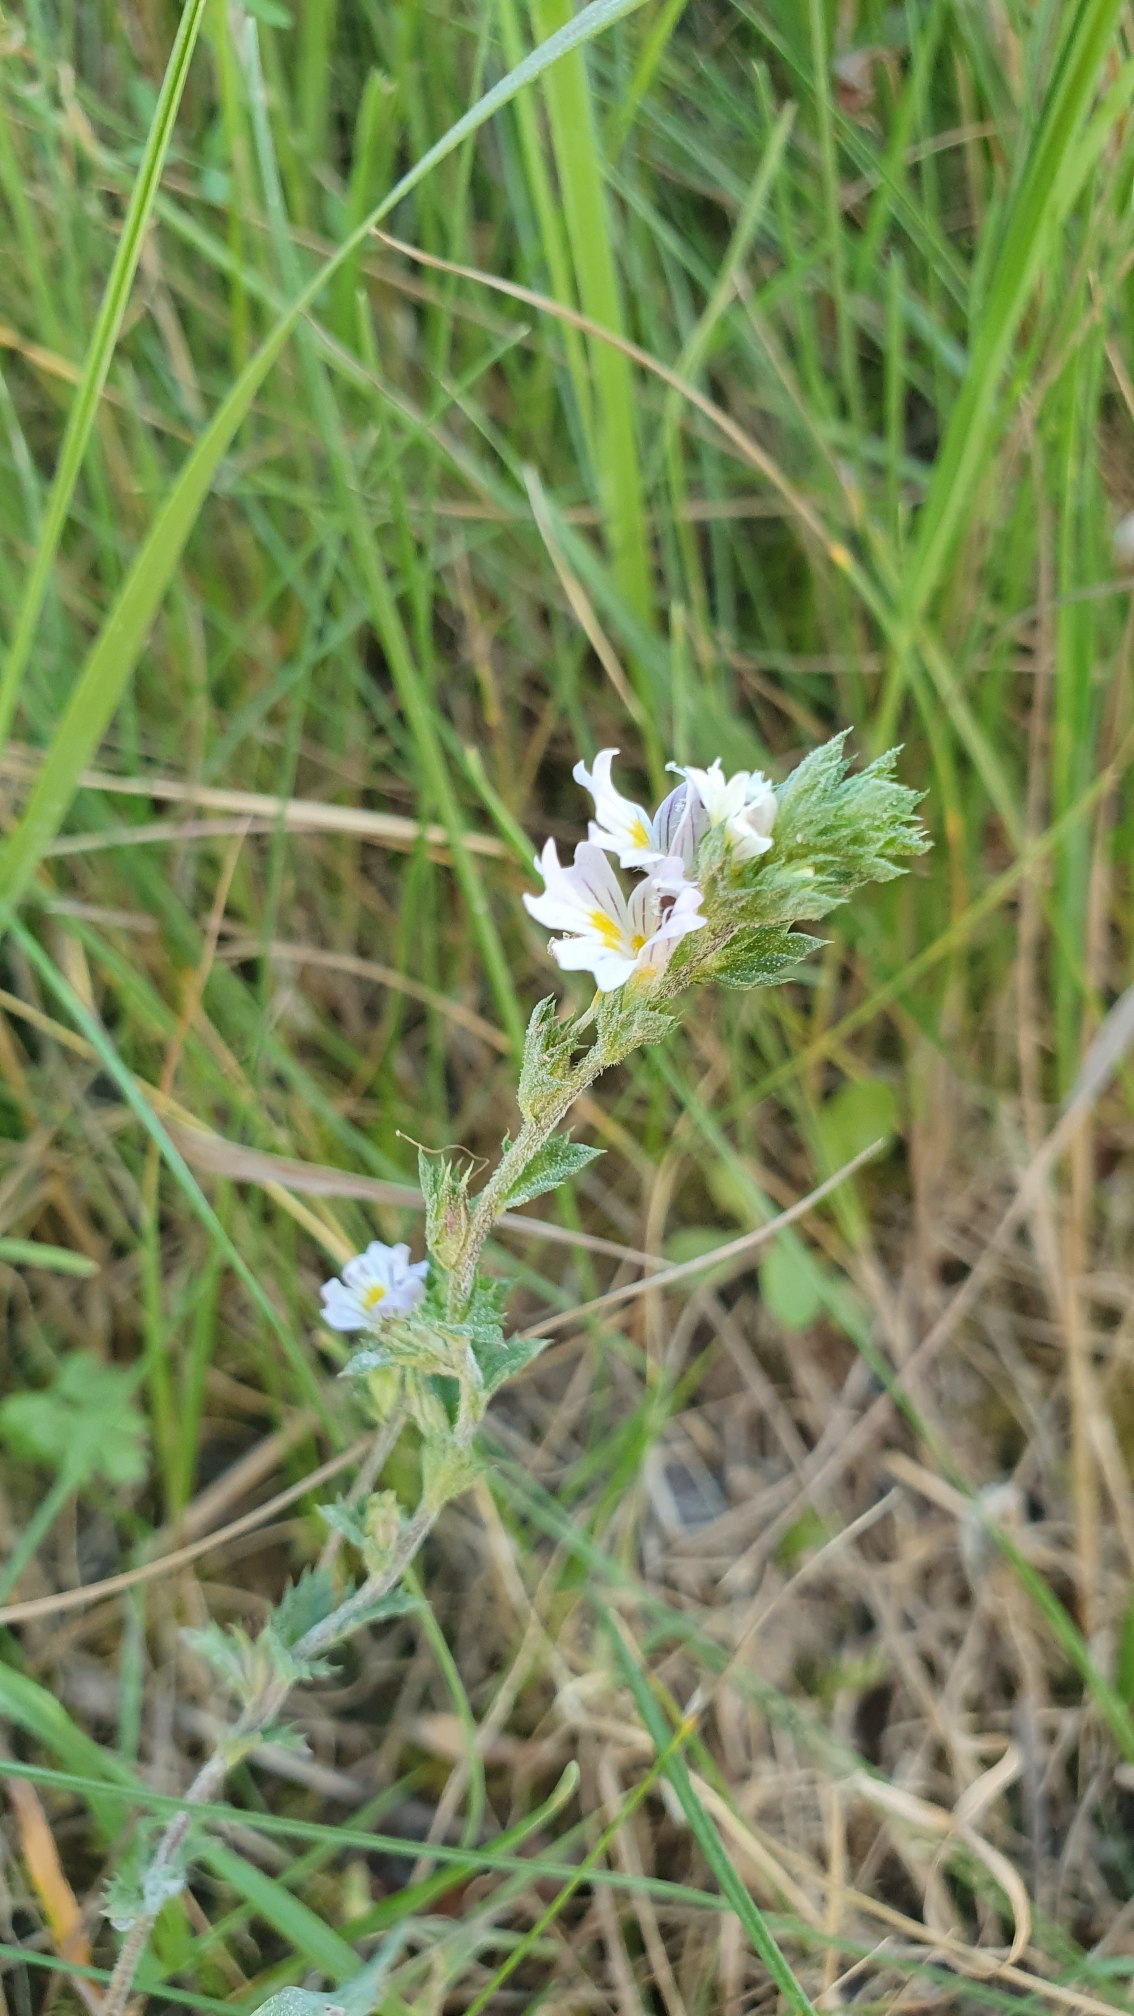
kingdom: Plantae
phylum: Tracheophyta
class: Magnoliopsida
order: Lamiales
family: Orobanchaceae
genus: Euphrasia
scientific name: Euphrasia stricta
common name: Spids øjentrøst
